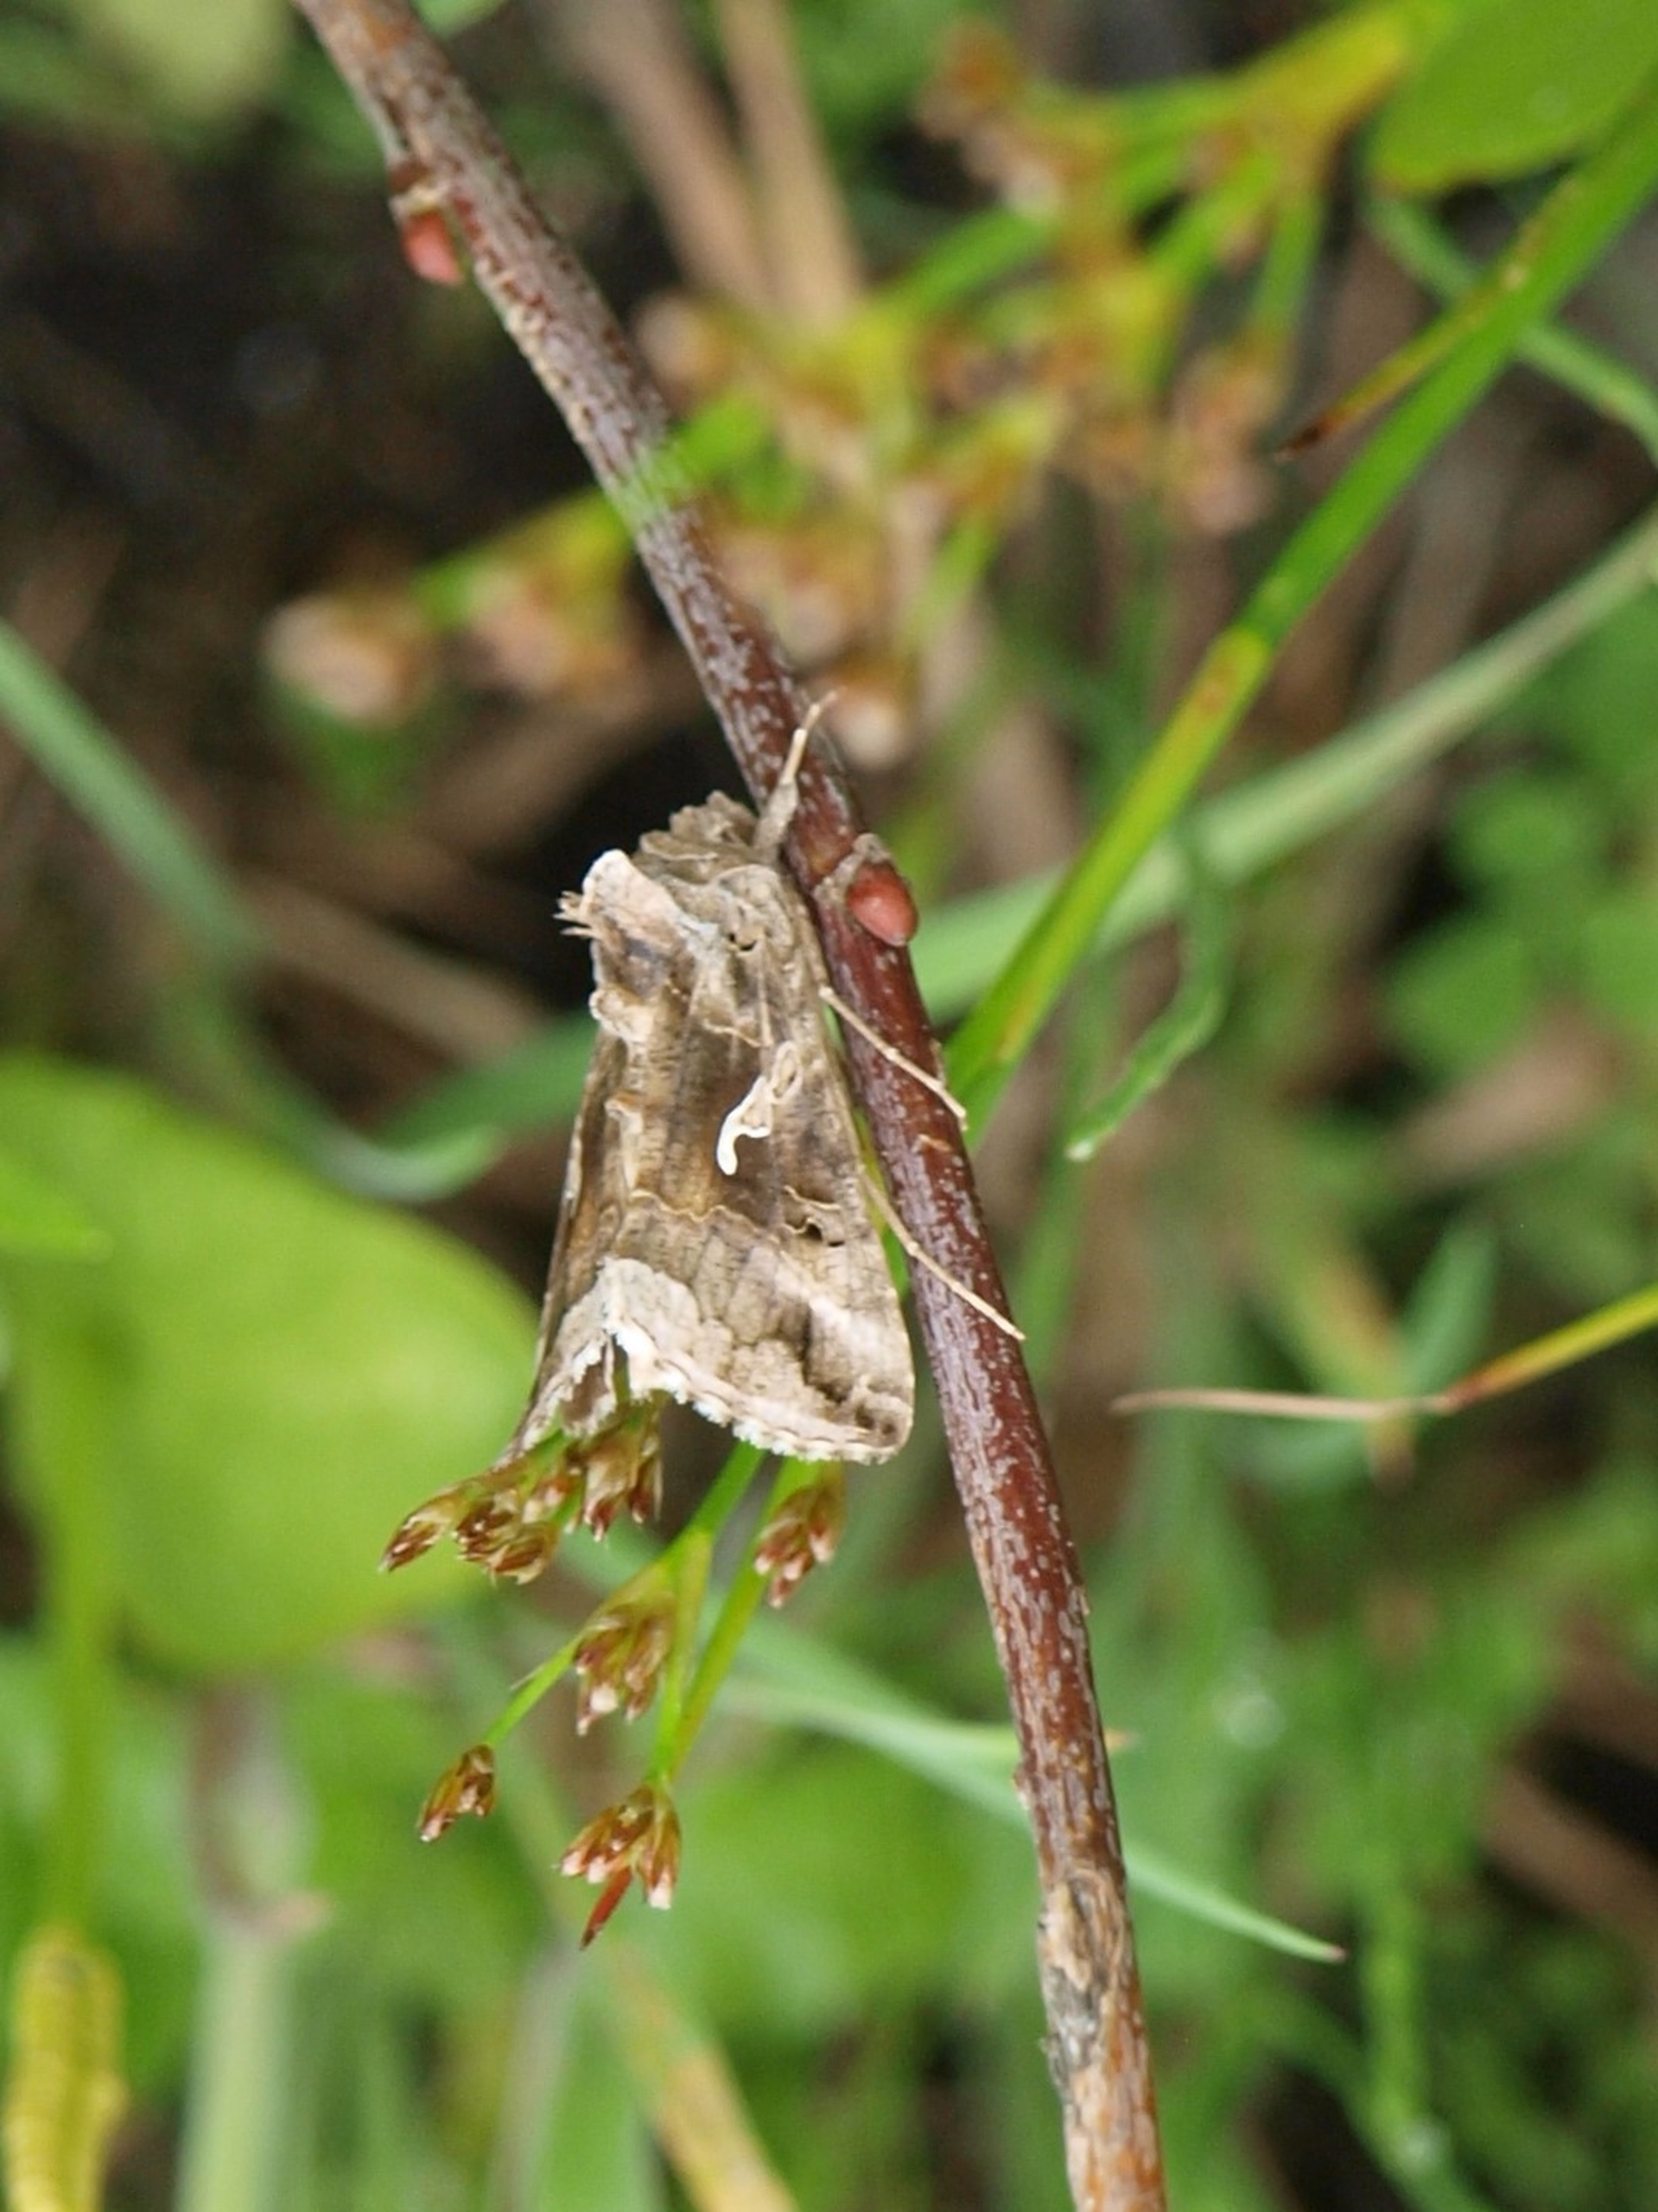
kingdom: Animalia
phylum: Arthropoda
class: Insecta
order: Lepidoptera
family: Noctuidae
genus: Autographa
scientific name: Autographa gamma
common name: Gammaugle
